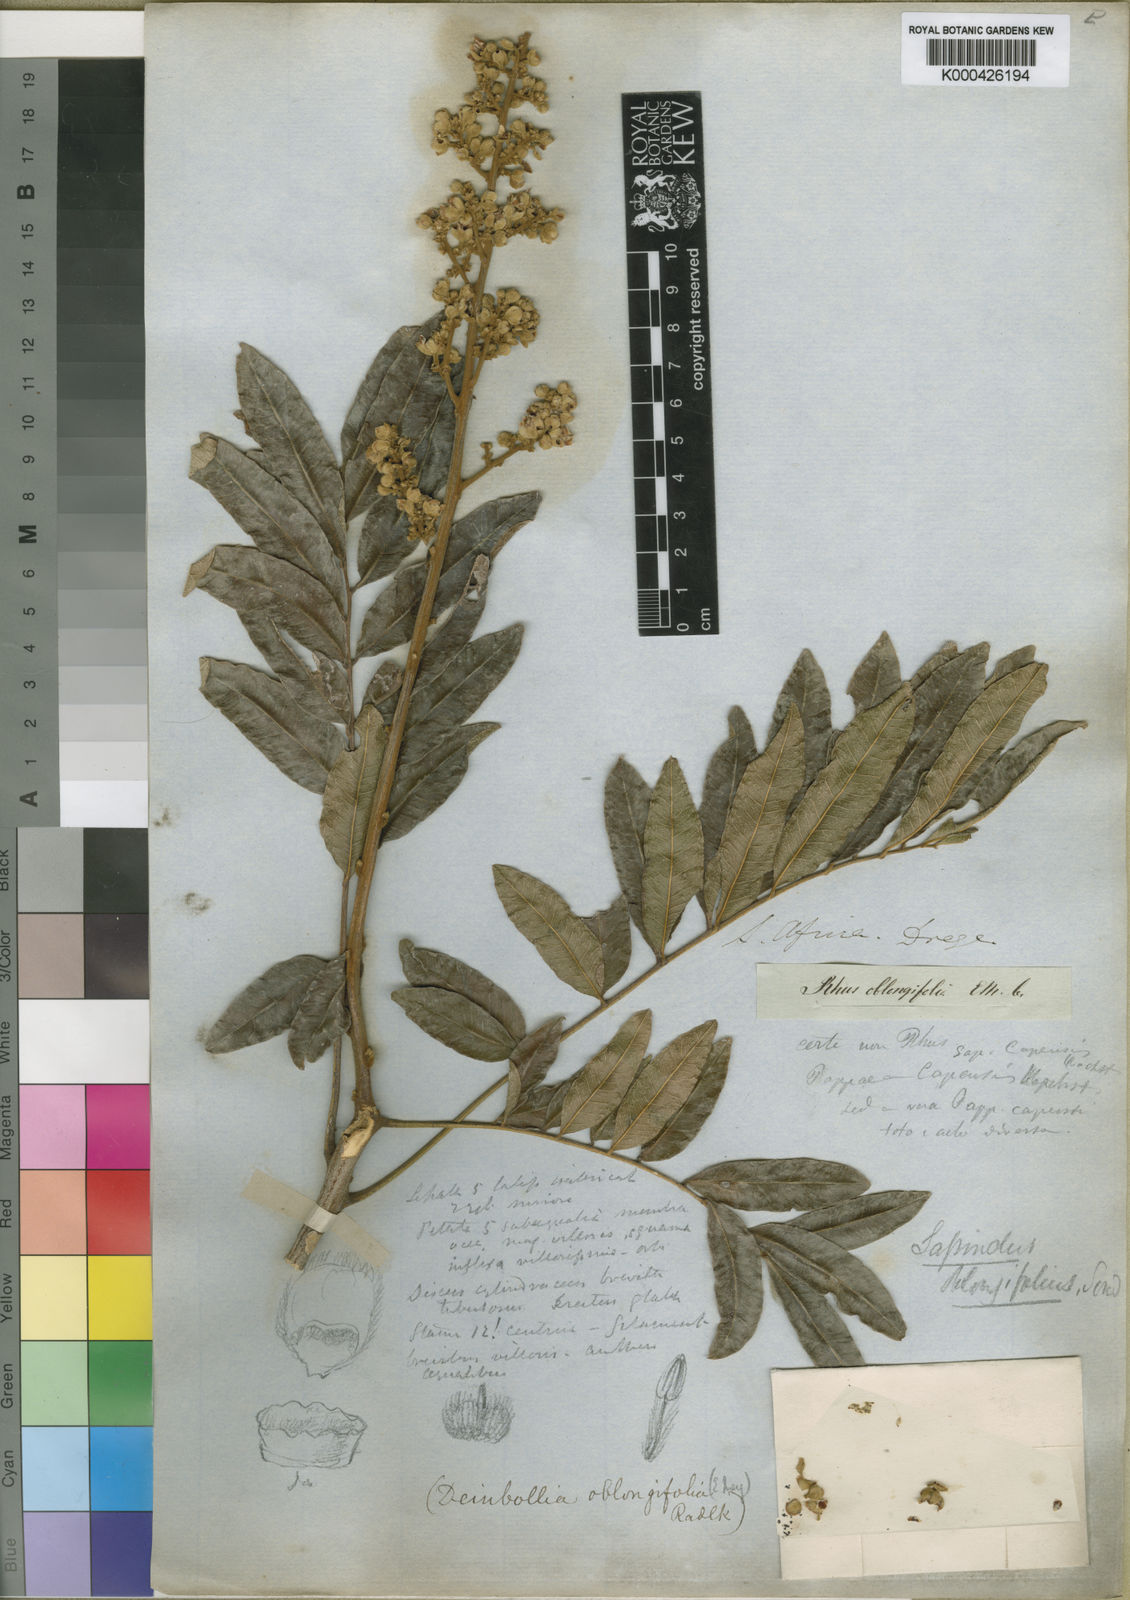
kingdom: Plantae
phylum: Tracheophyta
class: Magnoliopsida
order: Sapindales
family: Sapindaceae
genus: Deinbollia
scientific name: Deinbollia oblongifolia
